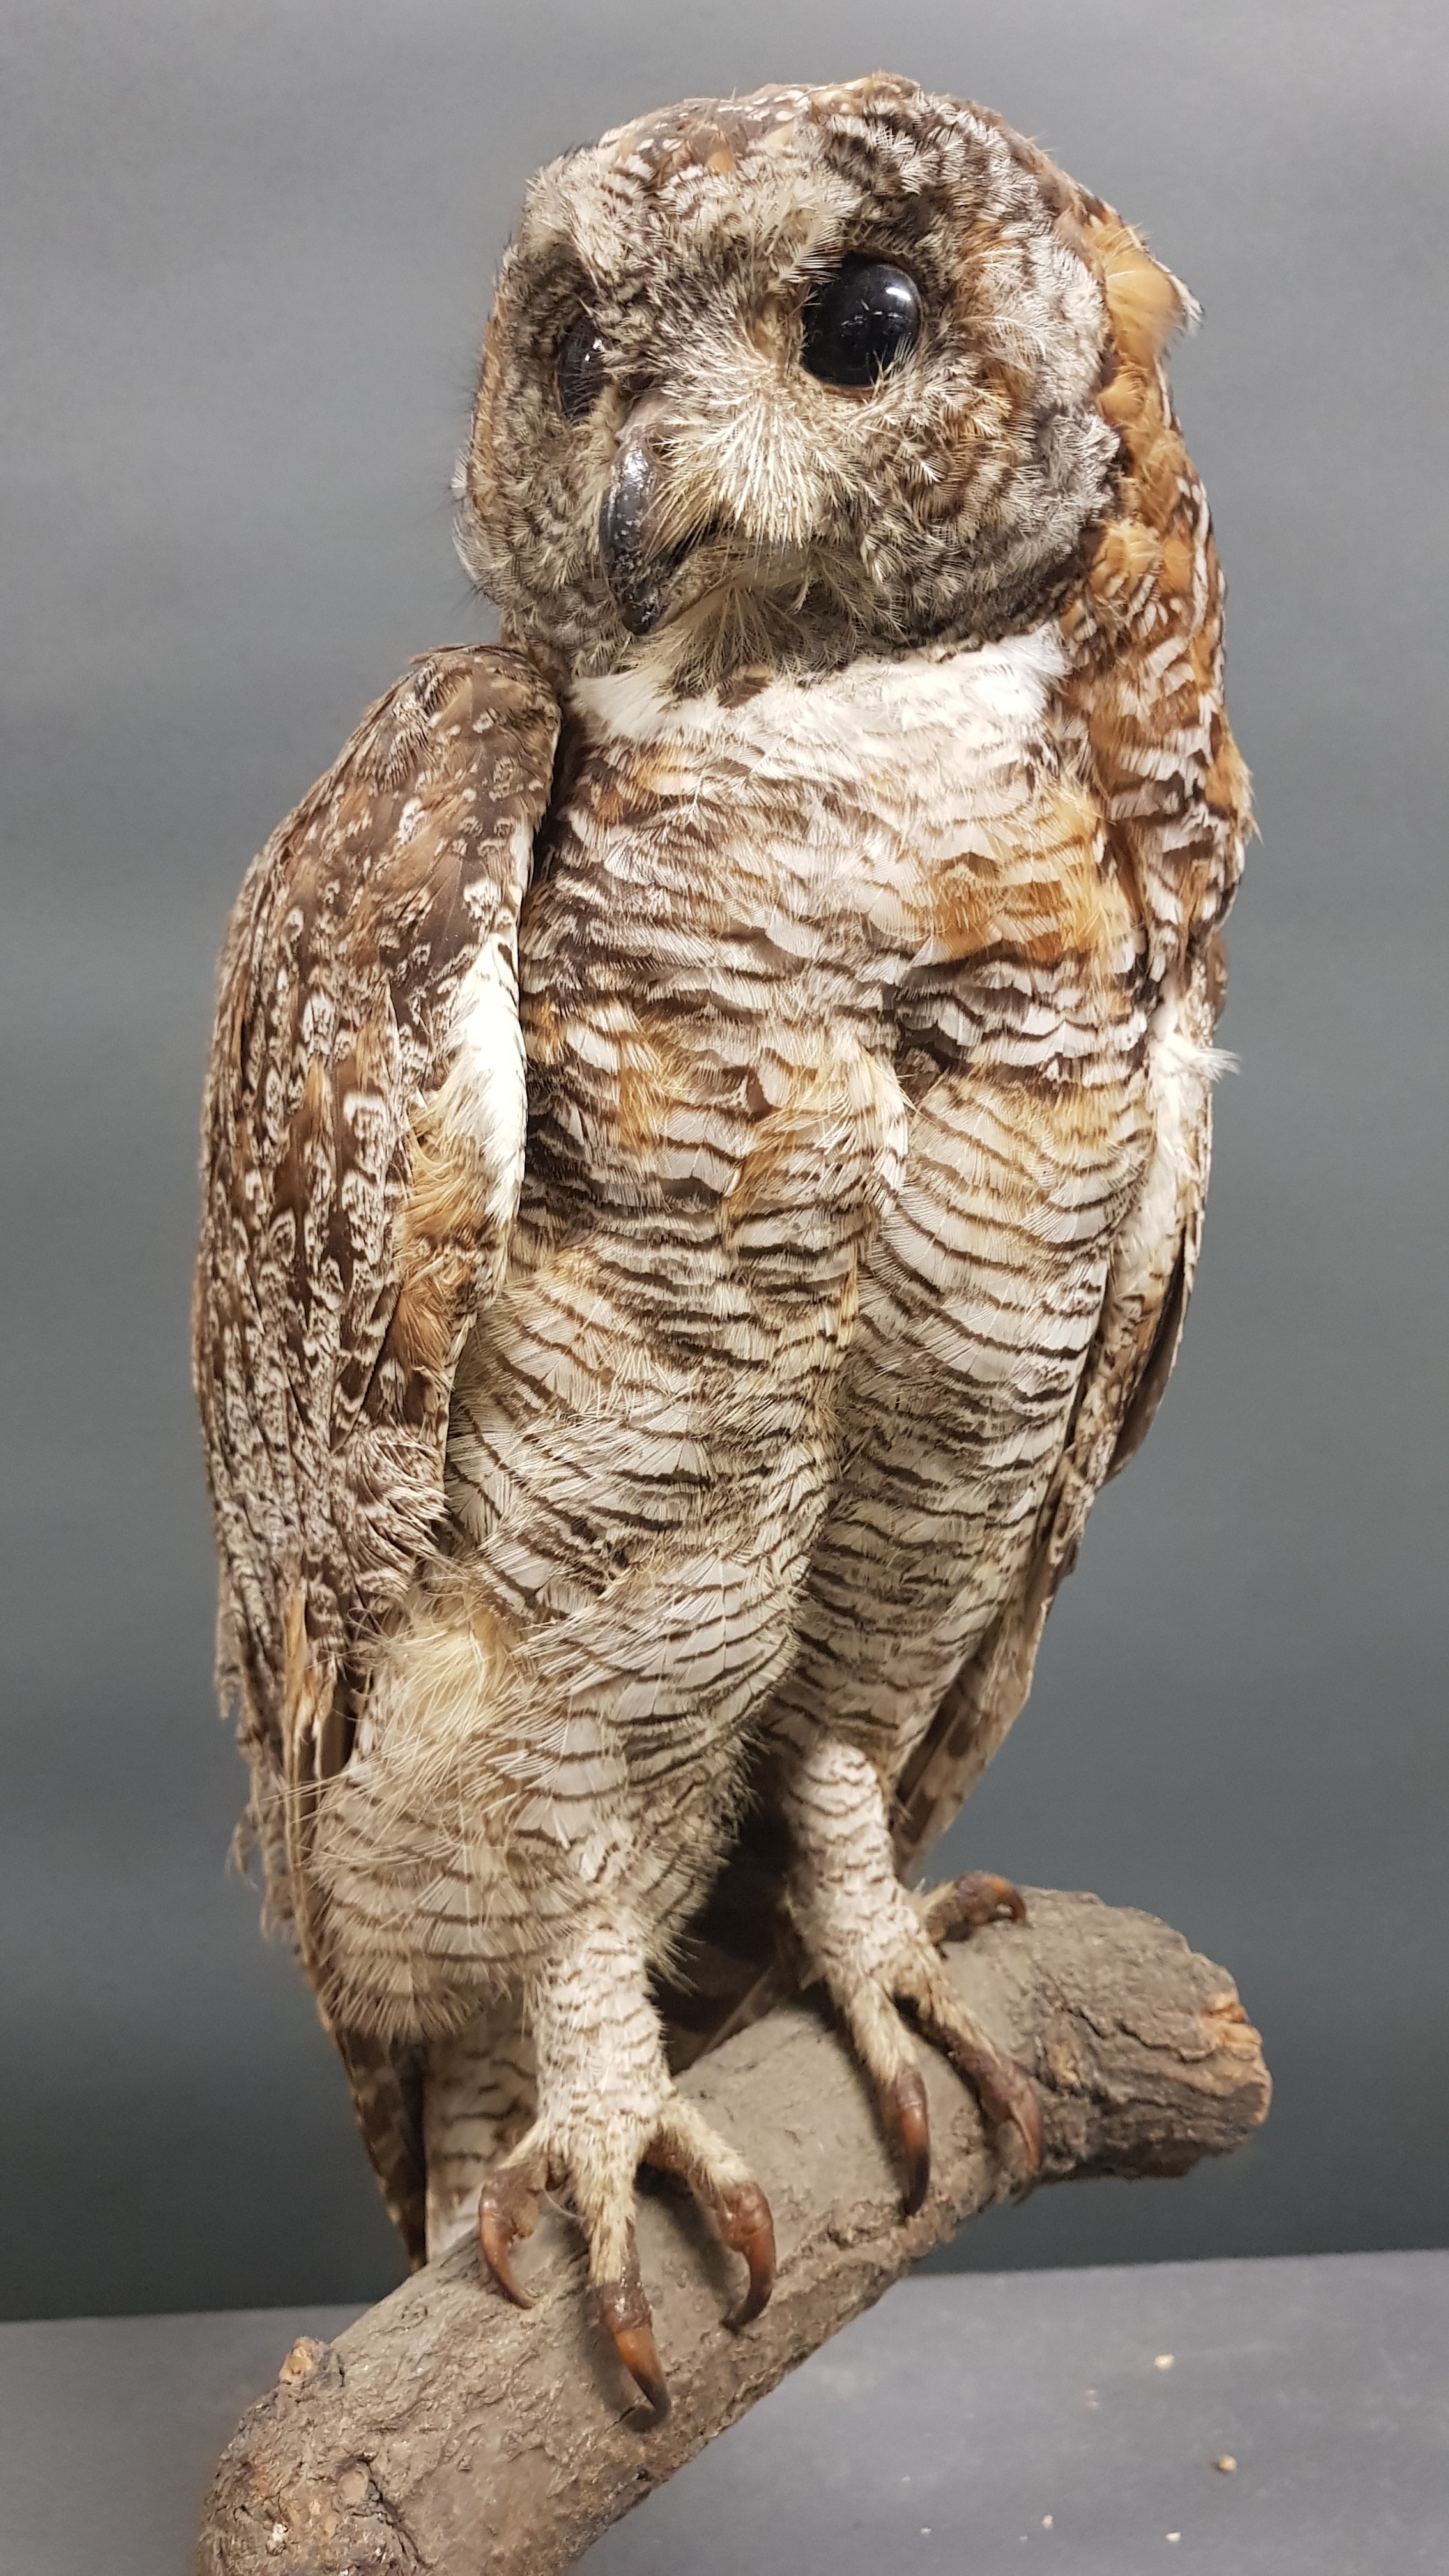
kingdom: Animalia
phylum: Chordata
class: Aves
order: Strigiformes
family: Strigidae
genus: Strix
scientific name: Strix ocellata
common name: Mottled wood owl
